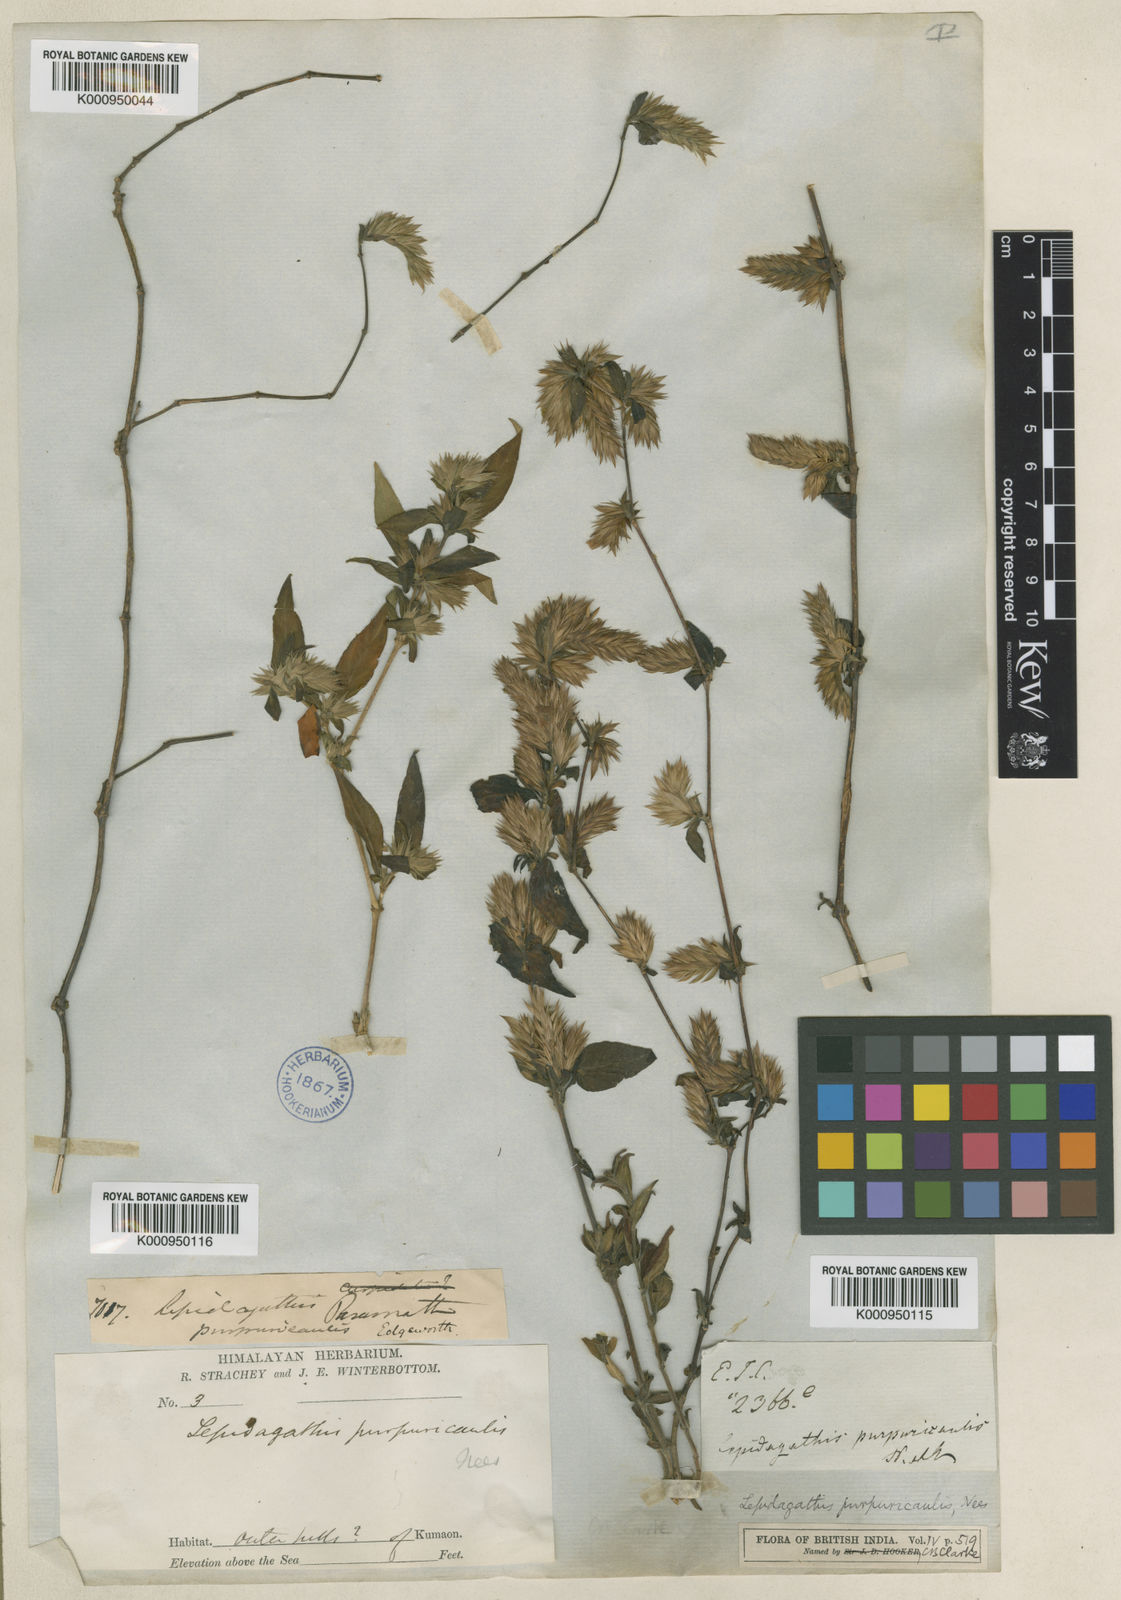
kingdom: Plantae
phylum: Tracheophyta
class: Magnoliopsida
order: Lamiales
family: Acanthaceae
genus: Lepidagathis
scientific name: Lepidagathis purpuricaulis
